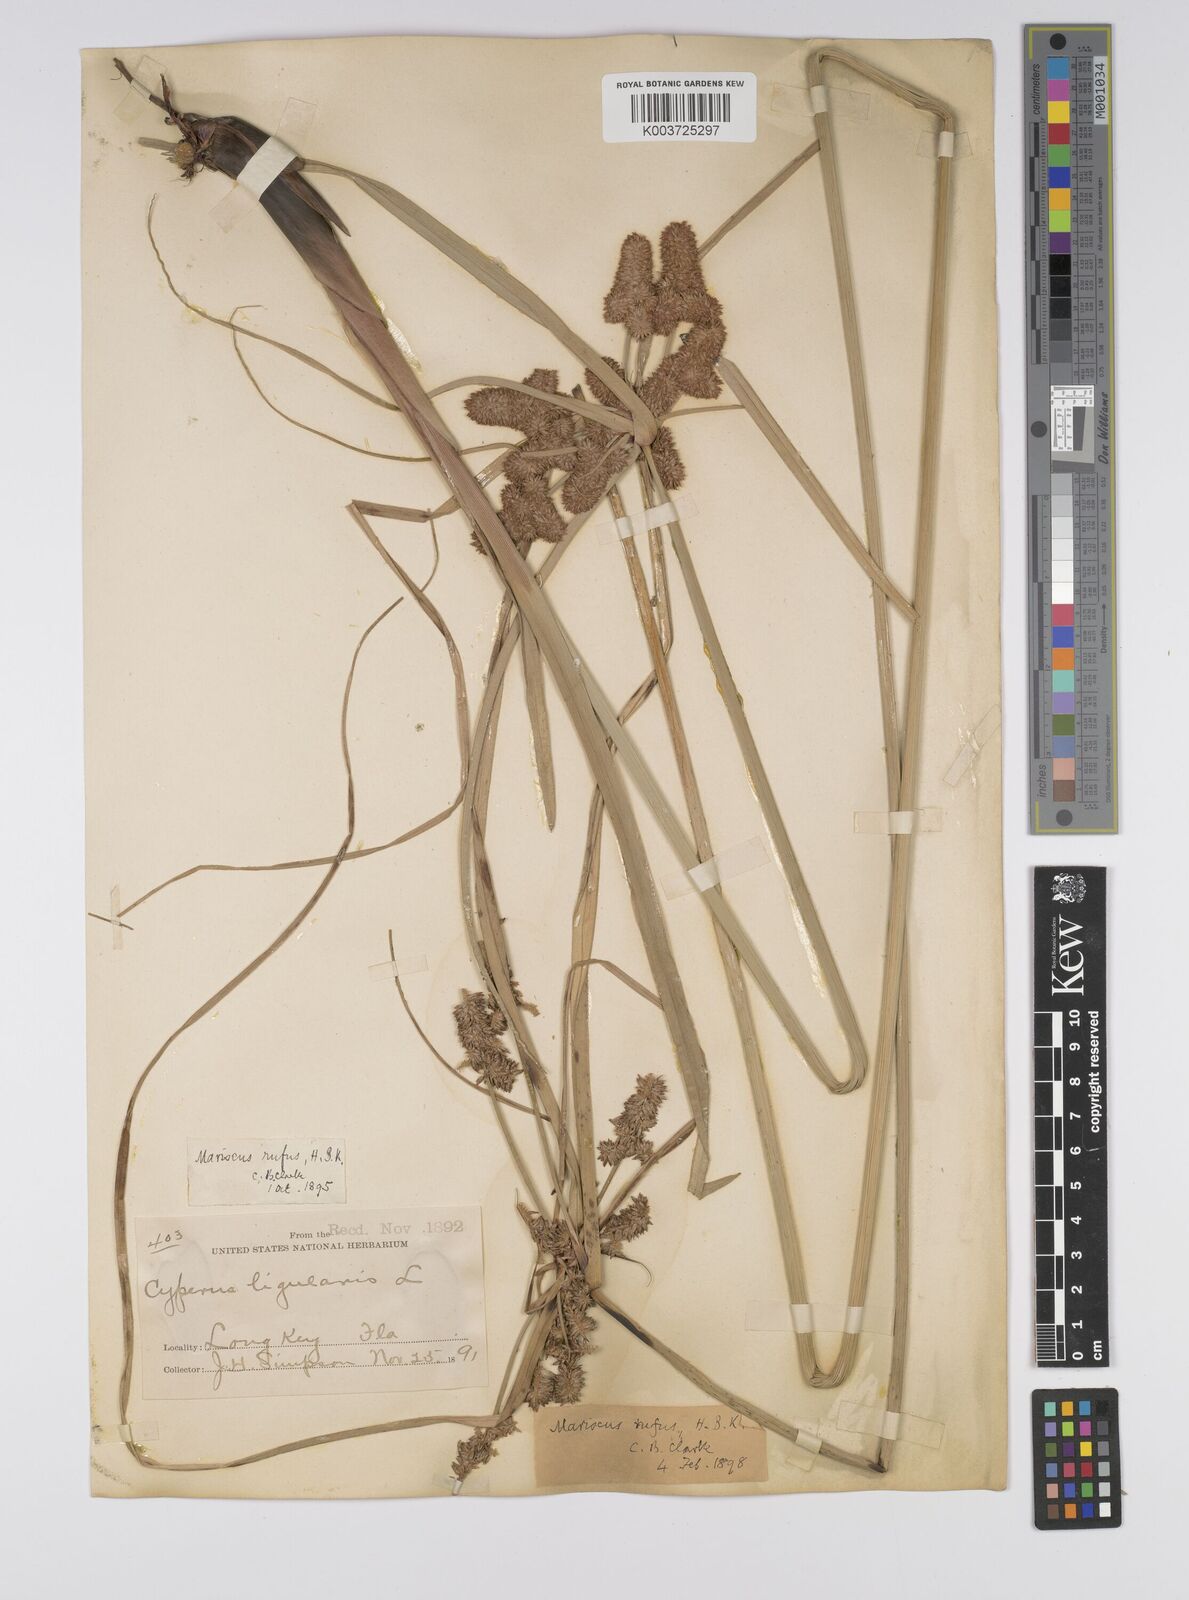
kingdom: Plantae
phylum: Tracheophyta
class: Liliopsida
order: Poales
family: Cyperaceae
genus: Cyperus
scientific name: Cyperus ligularis
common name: Swamp flat sedge
